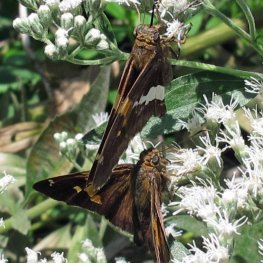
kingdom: Animalia
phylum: Arthropoda
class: Insecta
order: Lepidoptera
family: Hesperiidae
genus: Epargyreus
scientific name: Epargyreus clarus
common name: Silver-spotted Skipper
